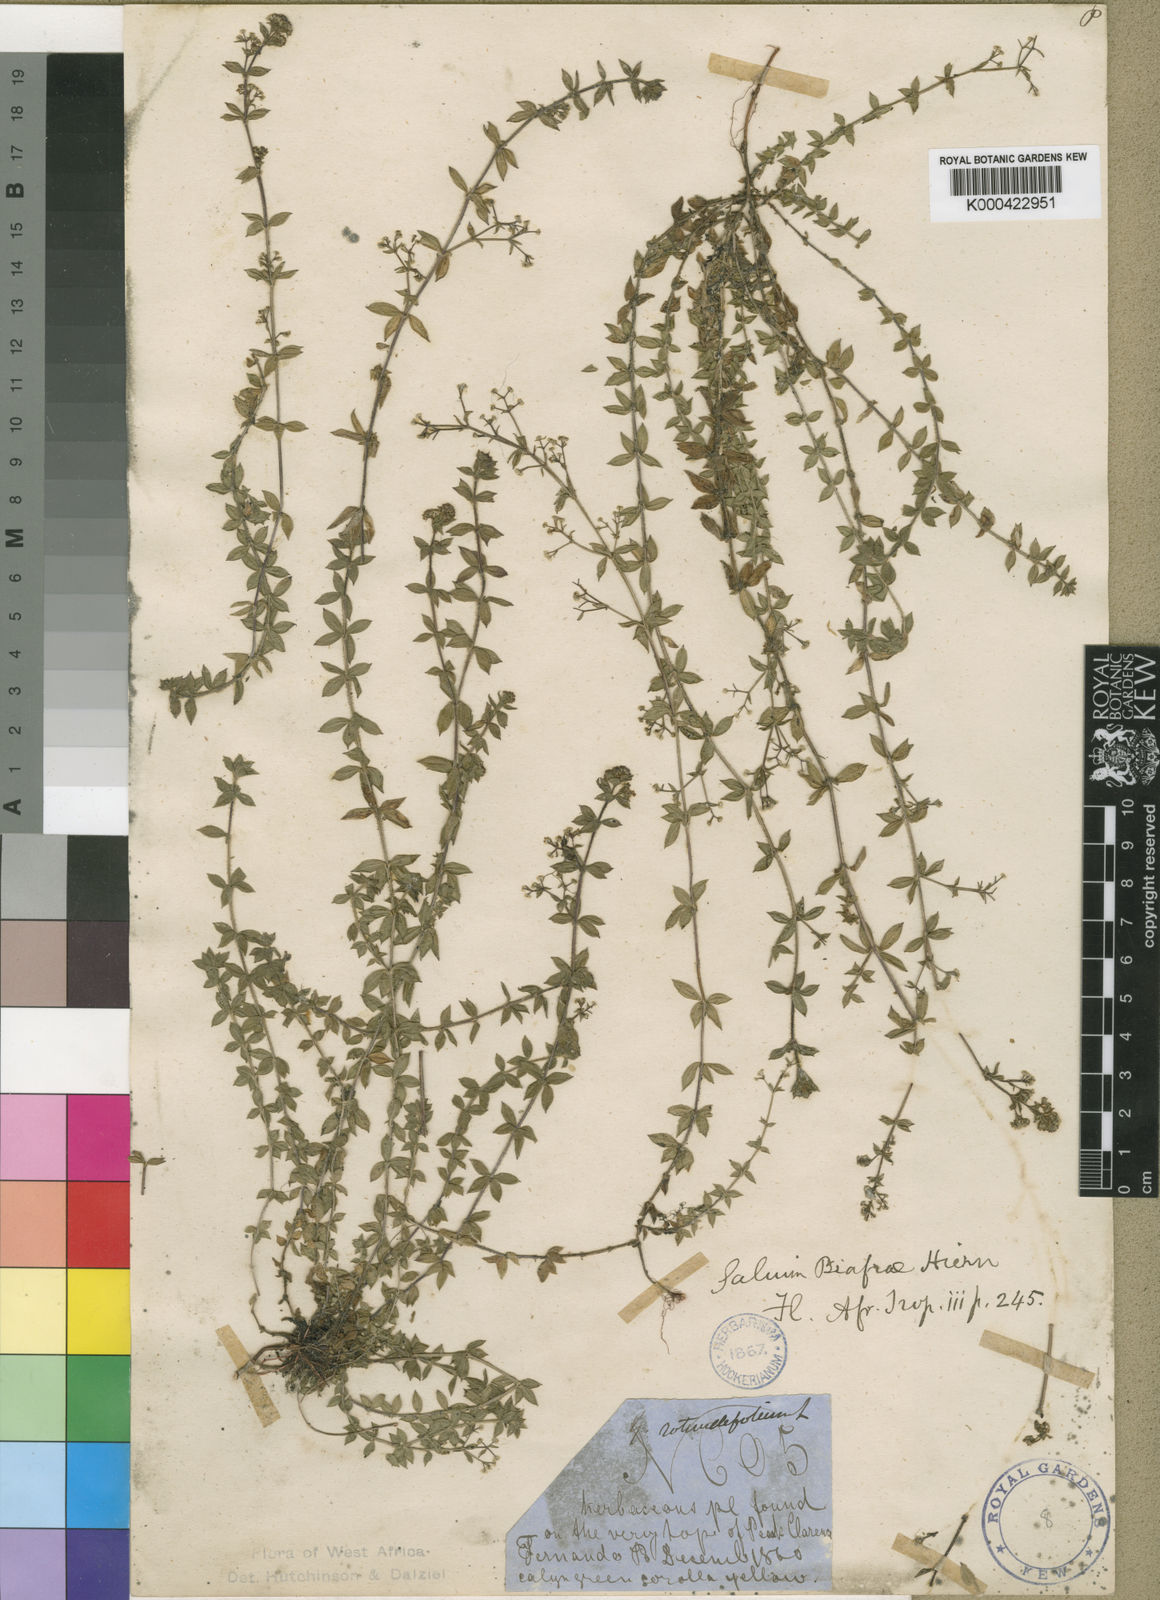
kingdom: Plantae
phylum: Tracheophyta
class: Magnoliopsida
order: Gentianales
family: Rubiaceae
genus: Galium
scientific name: Galium thunbergianum
